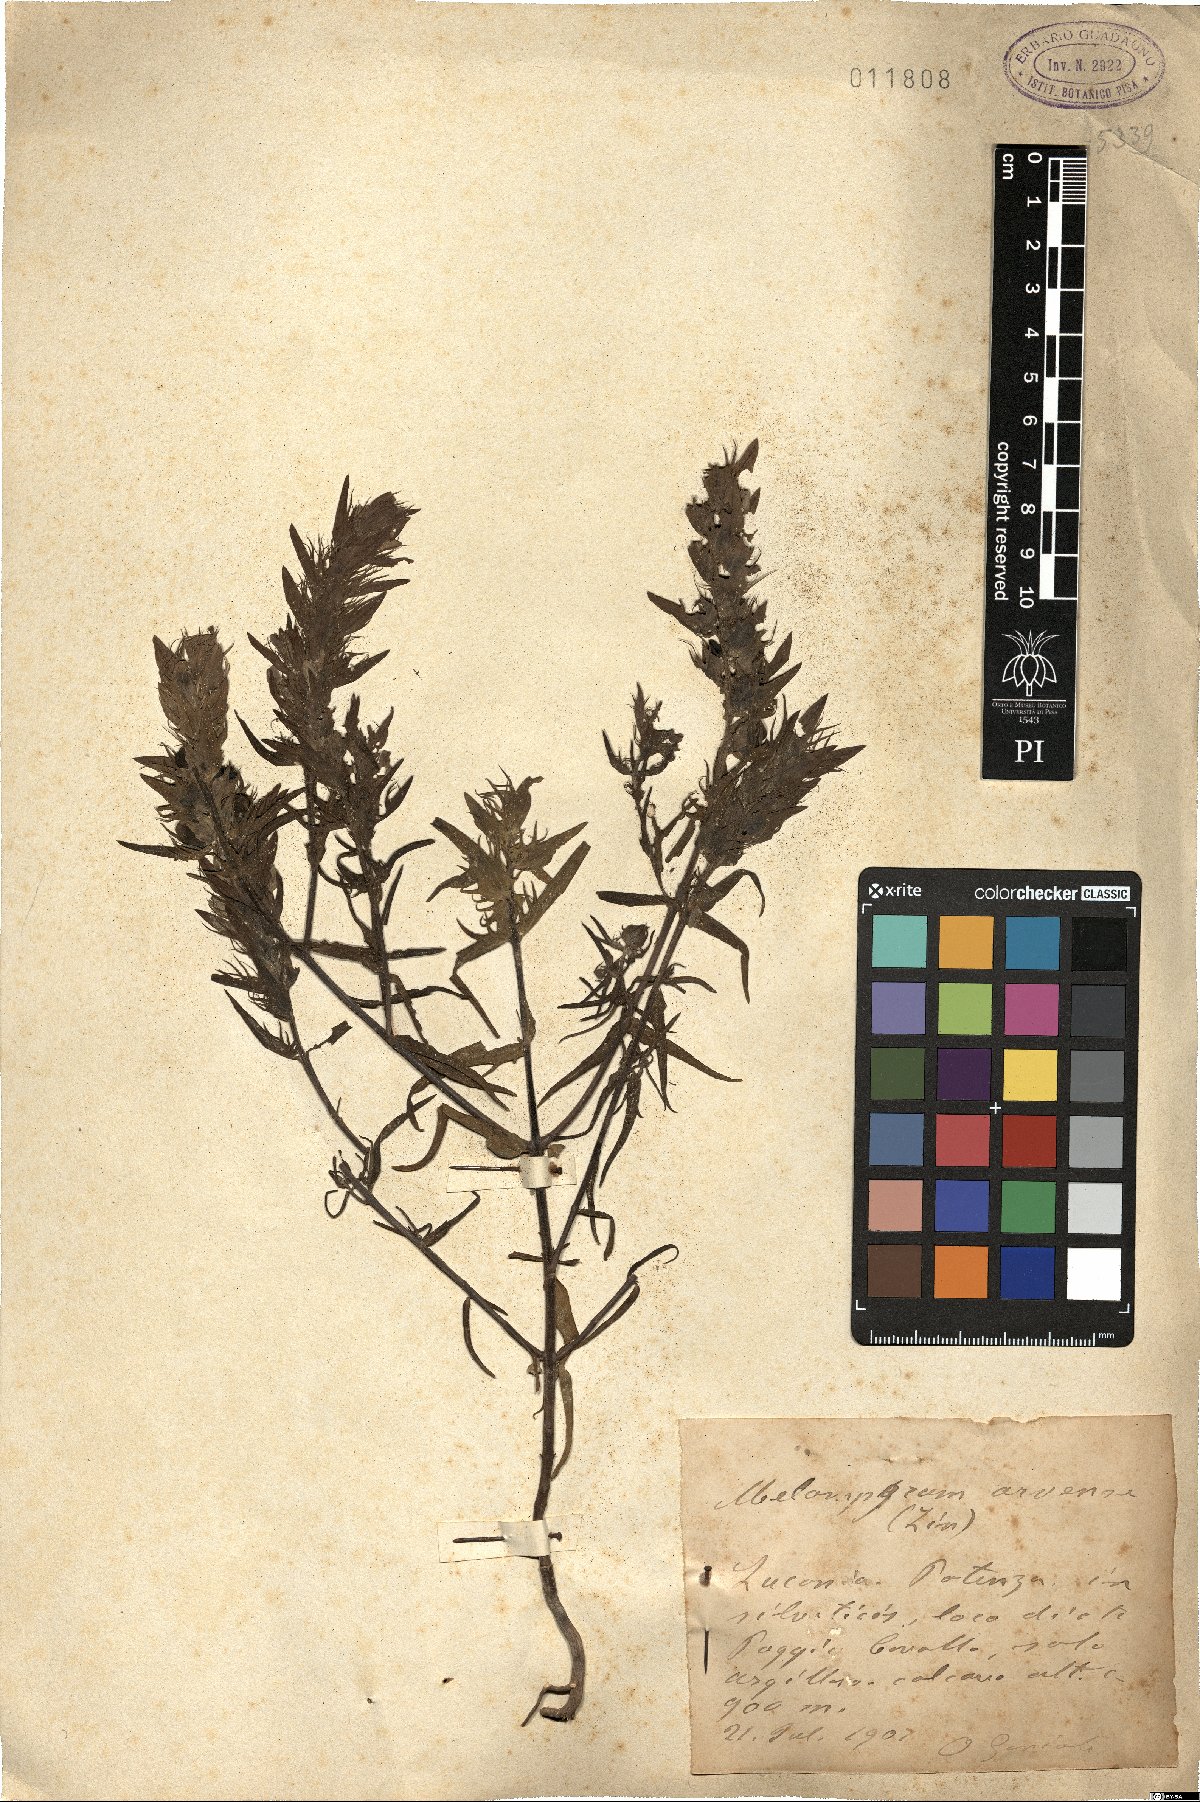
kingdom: Plantae
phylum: Tracheophyta
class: Magnoliopsida
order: Lamiales
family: Orobanchaceae
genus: Melampyrum
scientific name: Melampyrum arvense
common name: Field cow-wheat
